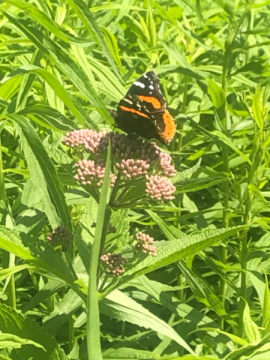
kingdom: Animalia
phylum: Arthropoda
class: Insecta
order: Lepidoptera
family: Nymphalidae
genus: Vanessa
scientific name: Vanessa atalanta
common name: Red Admiral
